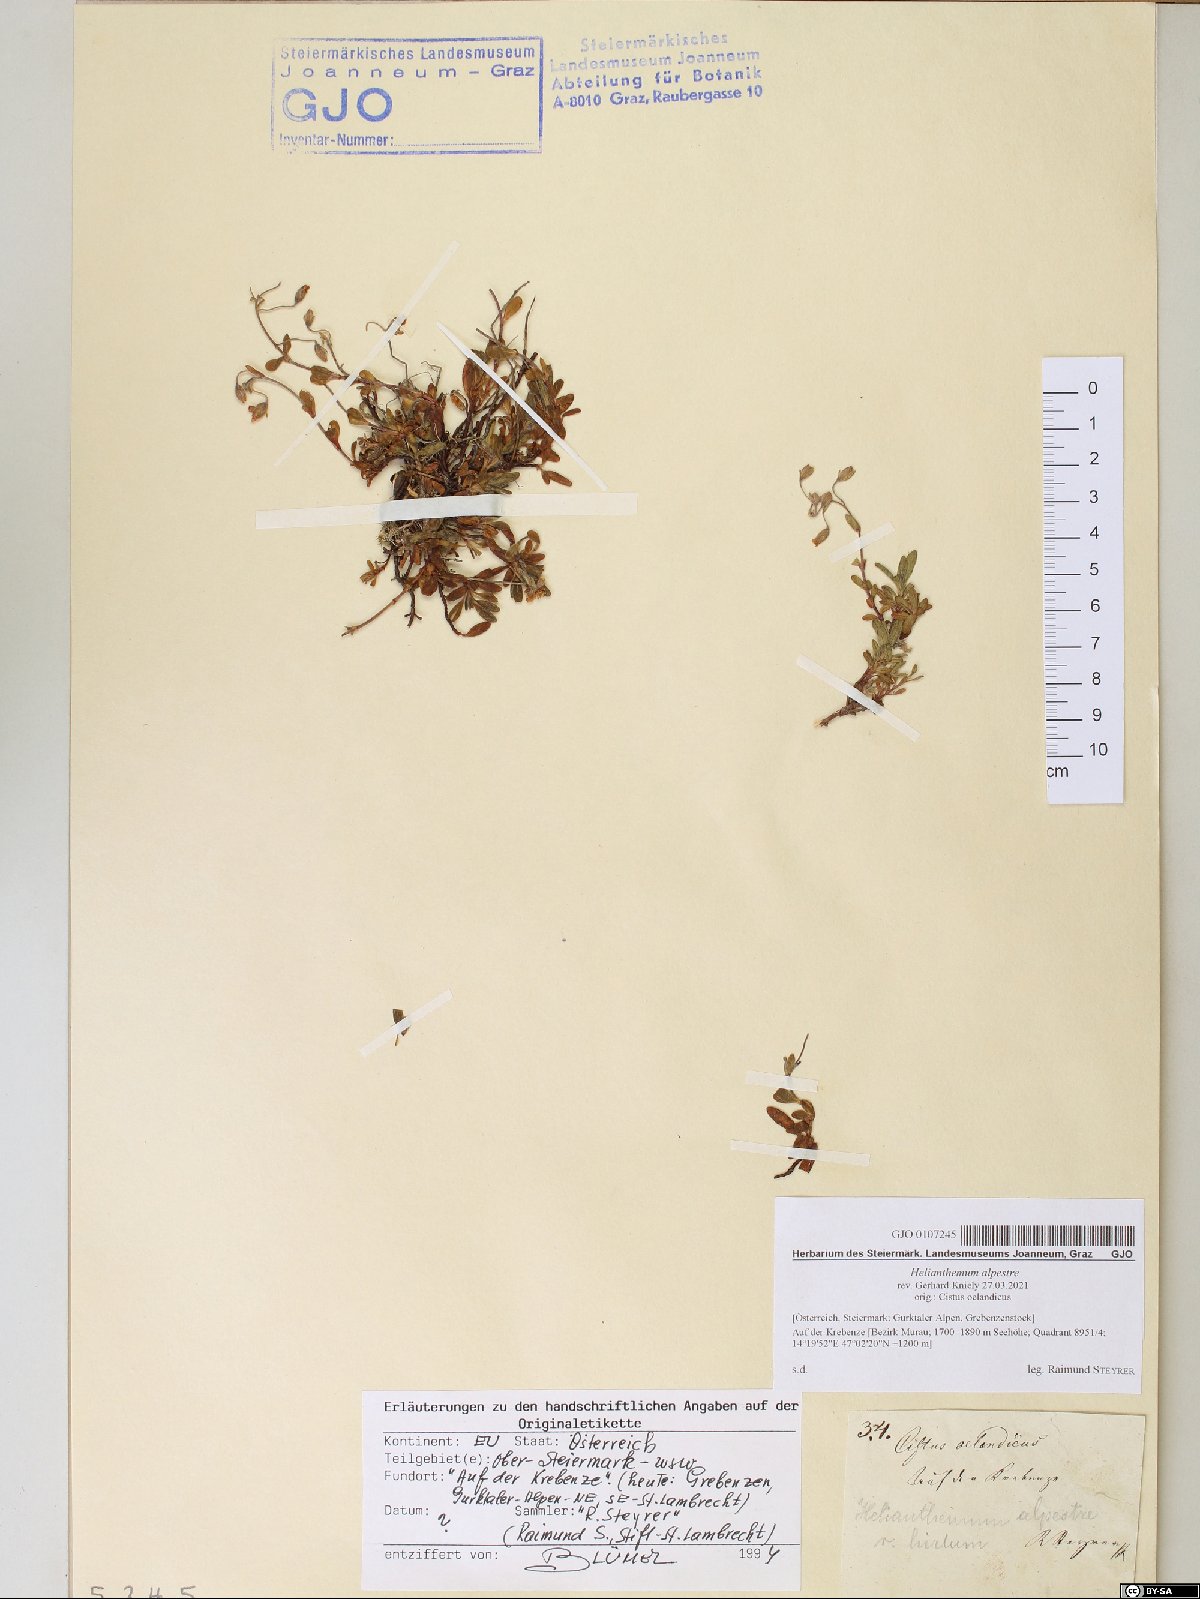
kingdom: Plantae
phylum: Tracheophyta
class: Magnoliopsida
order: Malvales
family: Cistaceae
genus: Helianthemum
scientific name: Helianthemum alpestre
